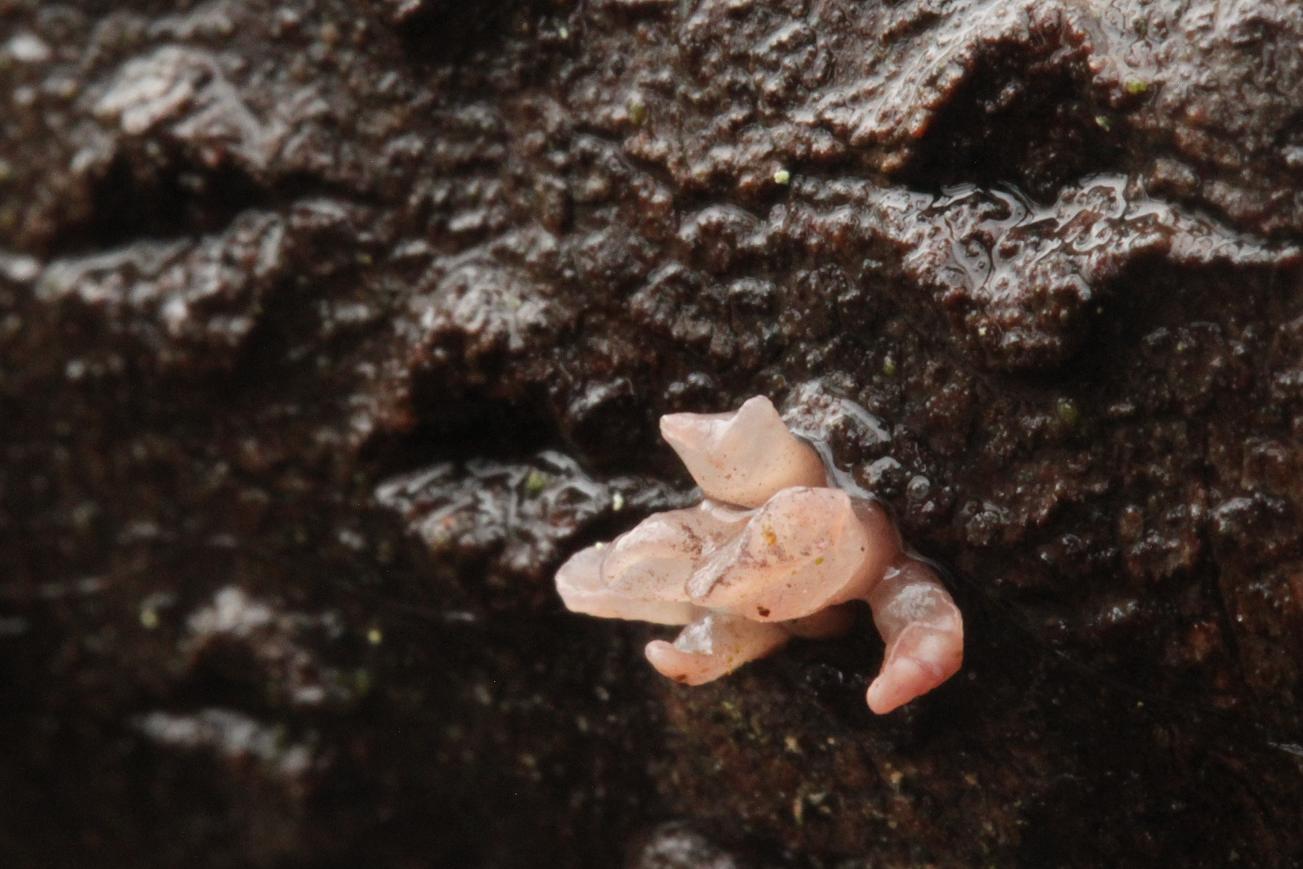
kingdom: Fungi
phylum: Ascomycota
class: Leotiomycetes
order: Helotiales
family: Gelatinodiscaceae
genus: Ascocoryne
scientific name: Ascocoryne sarcoides
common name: rødlilla sejskive
